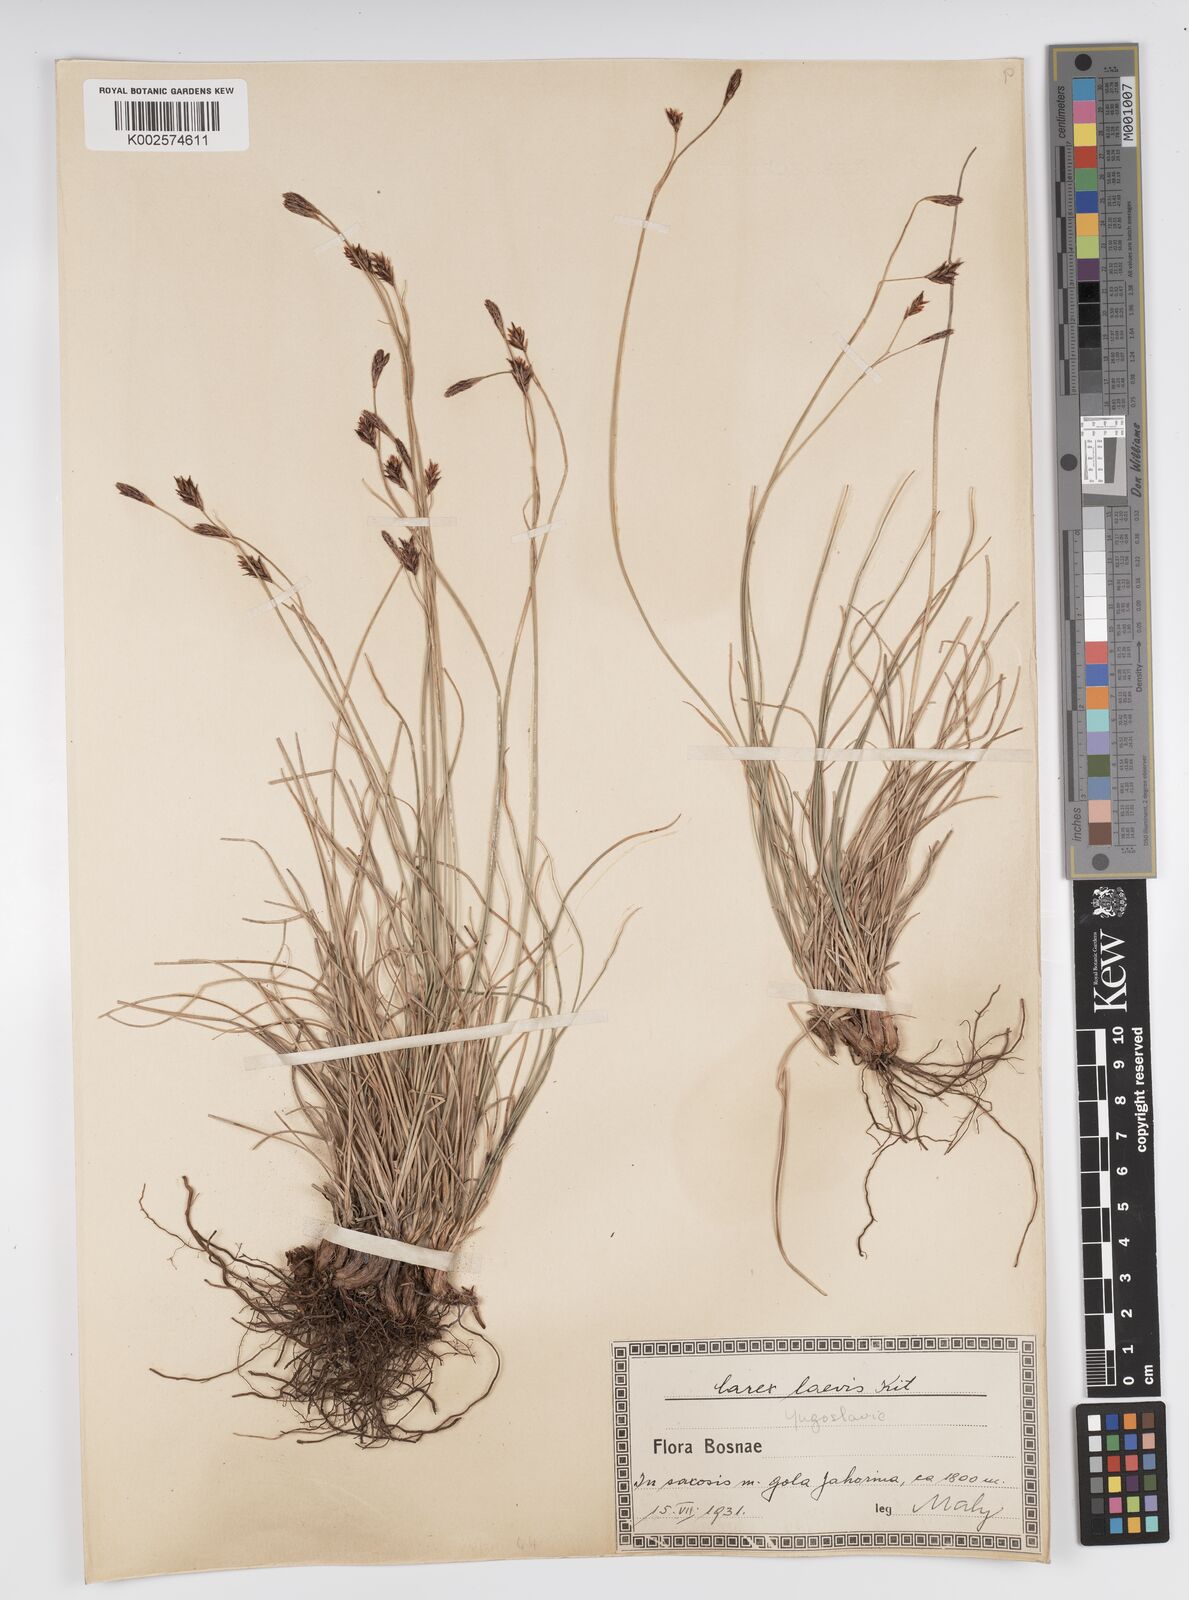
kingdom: Plantae
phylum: Tracheophyta
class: Liliopsida
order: Poales
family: Cyperaceae
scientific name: Cyperaceae
